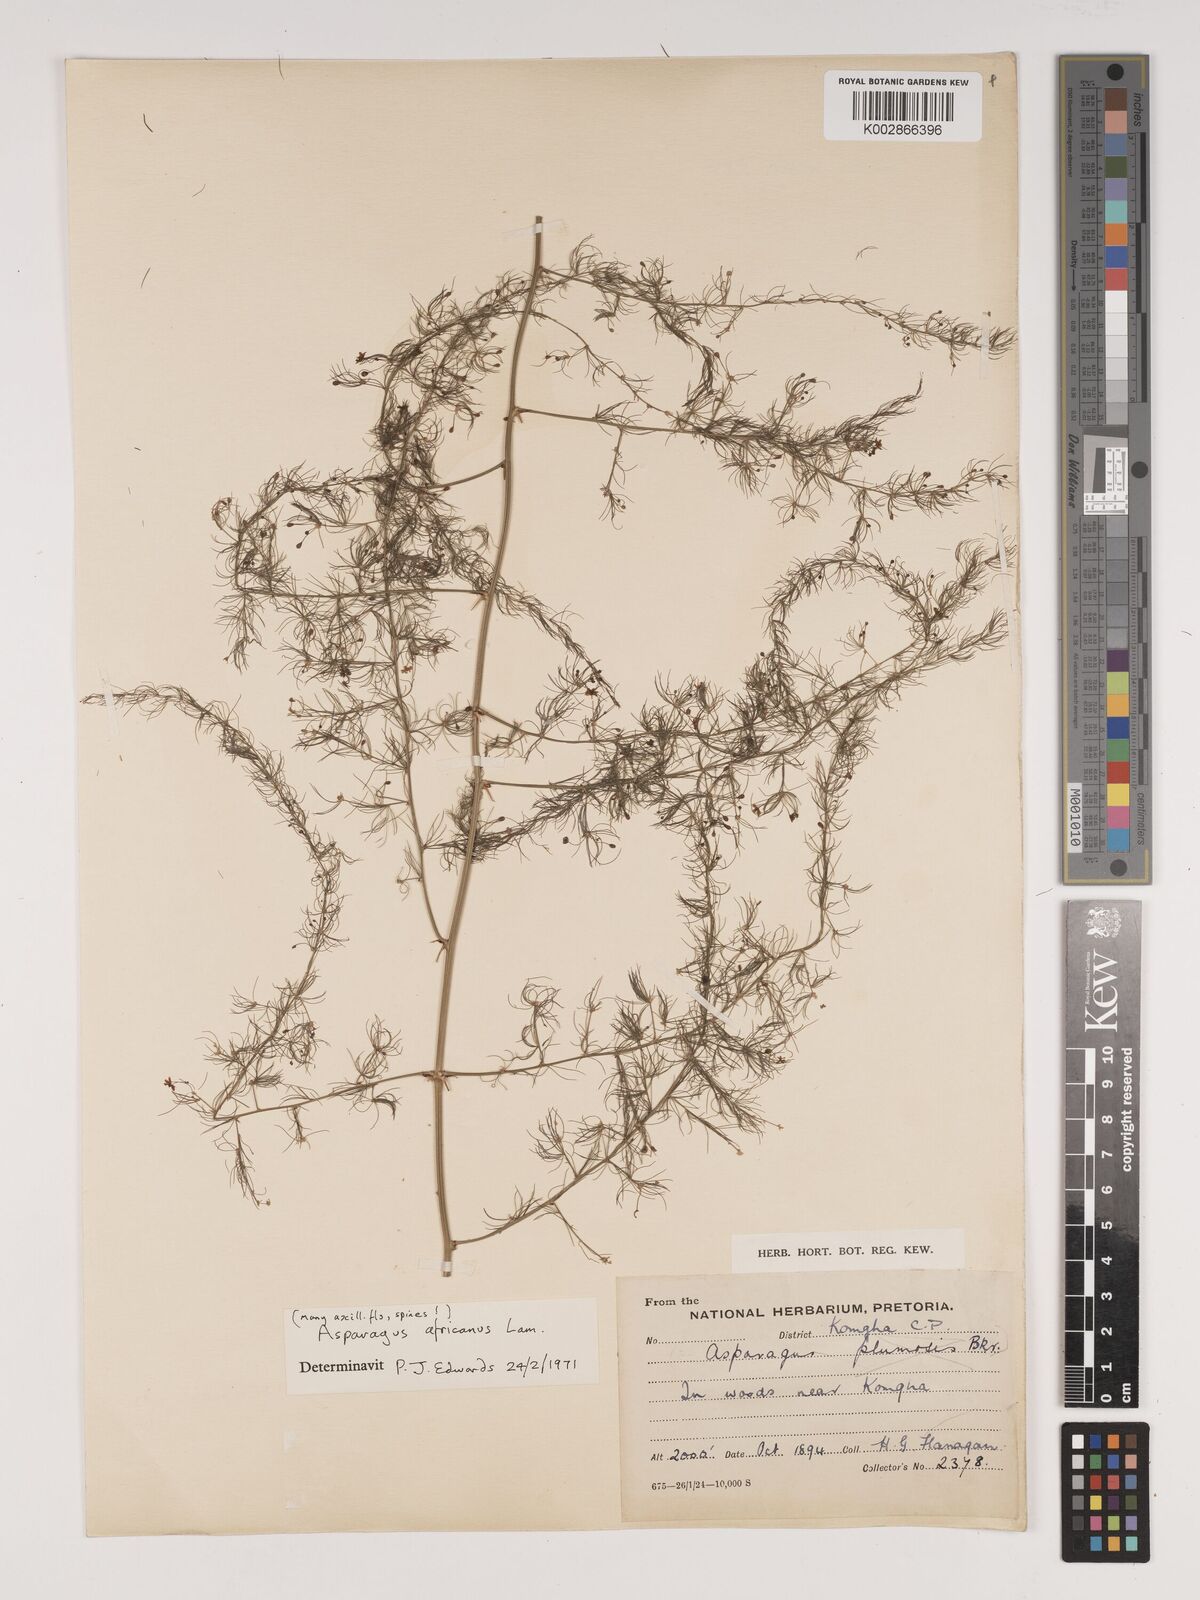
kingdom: Plantae
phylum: Tracheophyta
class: Liliopsida
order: Asparagales
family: Asparagaceae
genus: Asparagus
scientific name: Asparagus africanus
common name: Asparagus-fern
